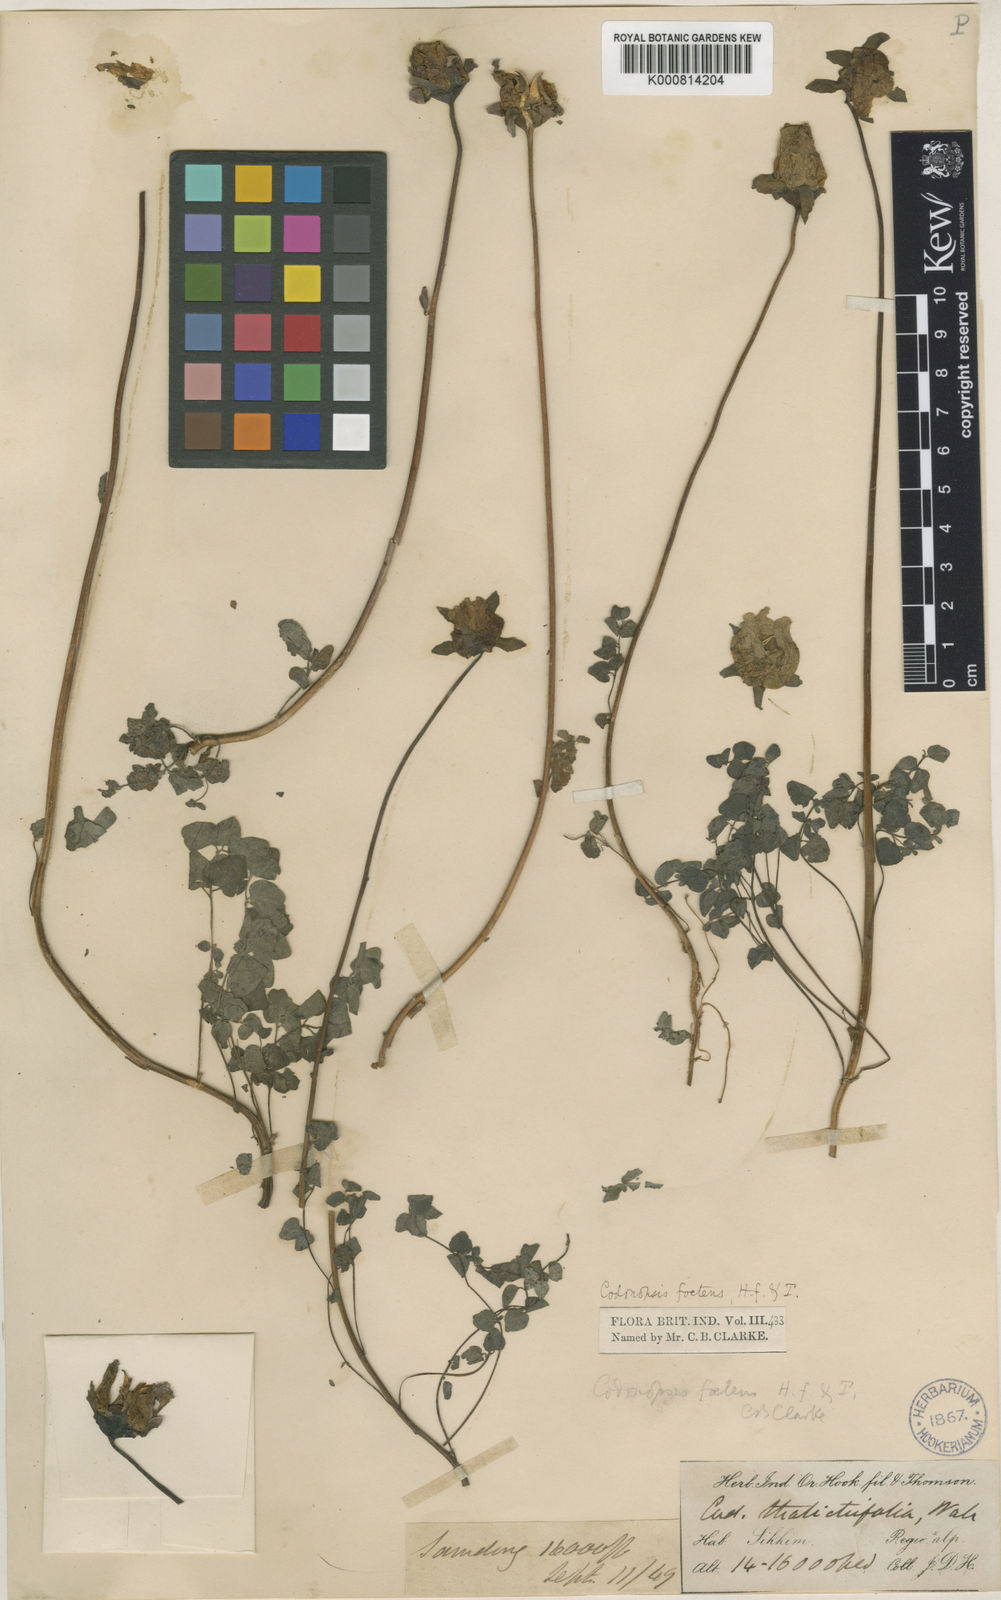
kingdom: Plantae
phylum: Tracheophyta
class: Magnoliopsida
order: Asterales
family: Campanulaceae
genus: Codonopsis
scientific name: Codonopsis foetens
